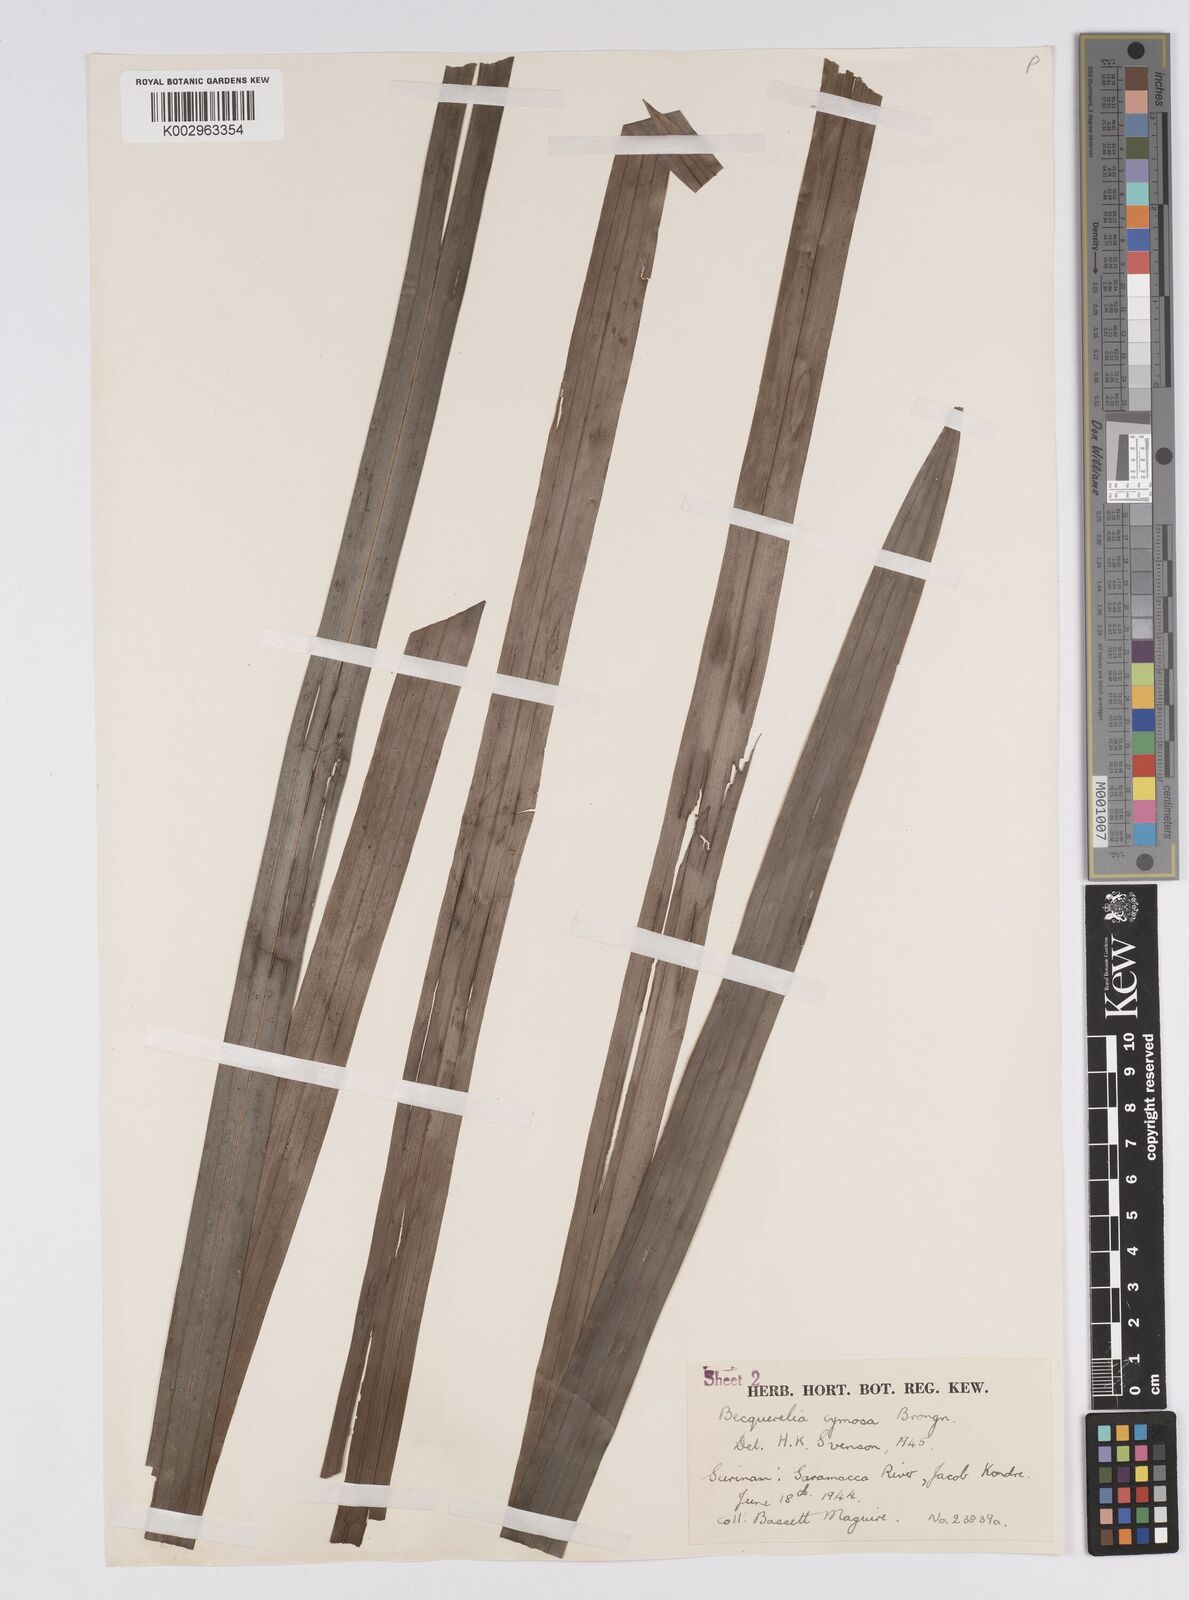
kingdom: Plantae
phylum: Tracheophyta
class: Liliopsida
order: Poales
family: Cyperaceae
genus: Becquerelia
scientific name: Becquerelia cymosa
